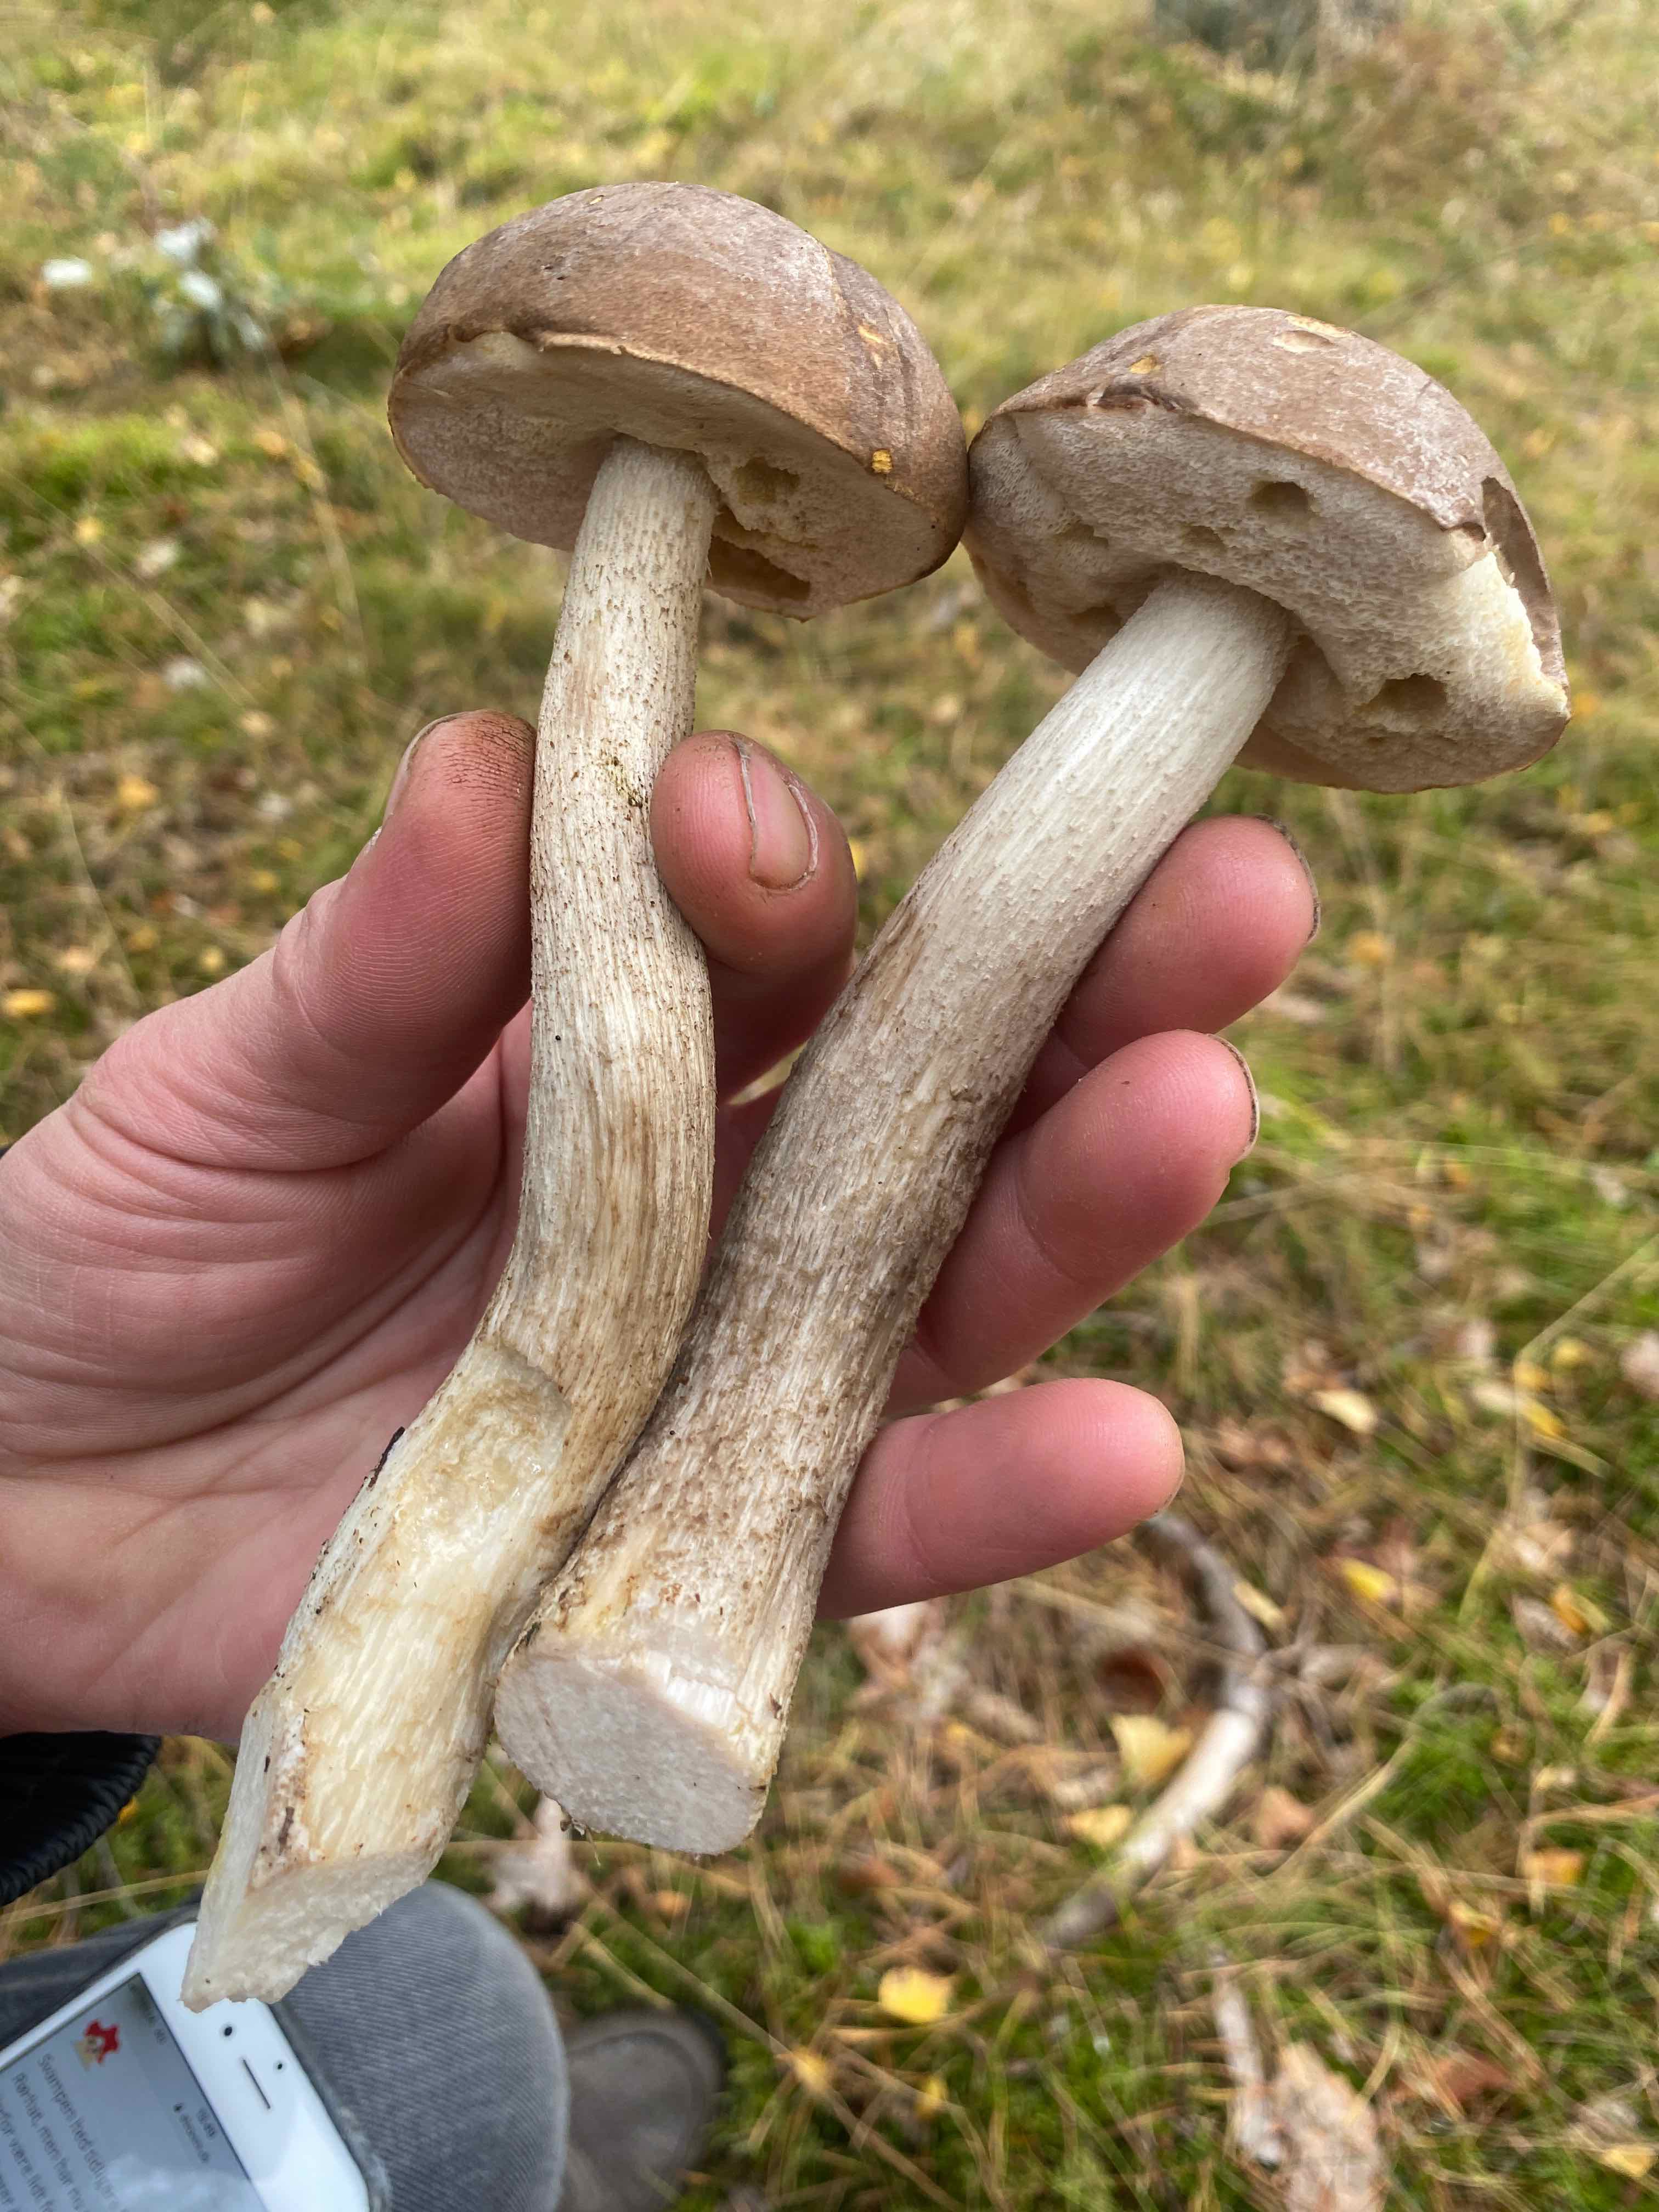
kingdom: Fungi
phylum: Basidiomycota
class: Agaricomycetes
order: Boletales
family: Boletaceae
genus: Leccinum
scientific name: Leccinum
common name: skælrørhat
